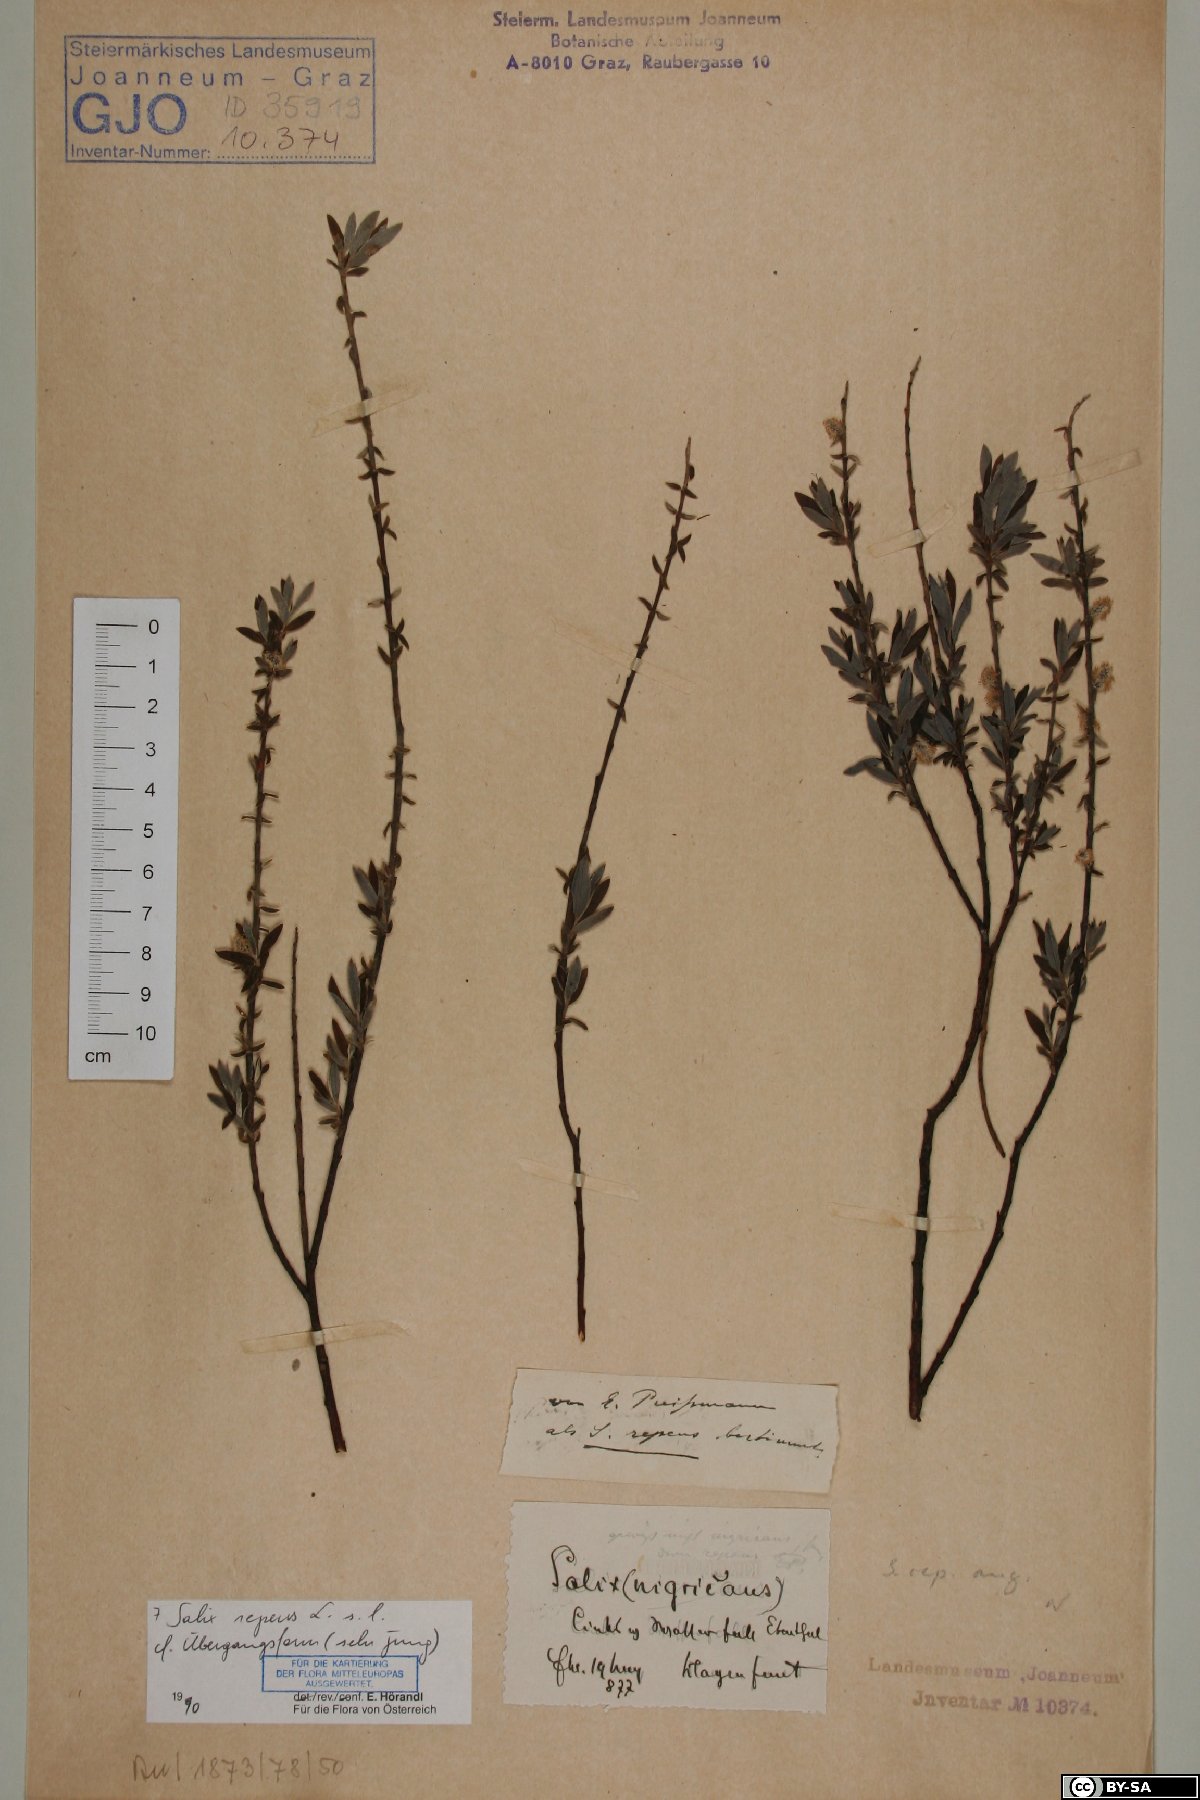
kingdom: Plantae
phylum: Tracheophyta
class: Magnoliopsida
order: Malpighiales
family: Salicaceae
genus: Salix
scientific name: Salix repens
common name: Creeping willow
